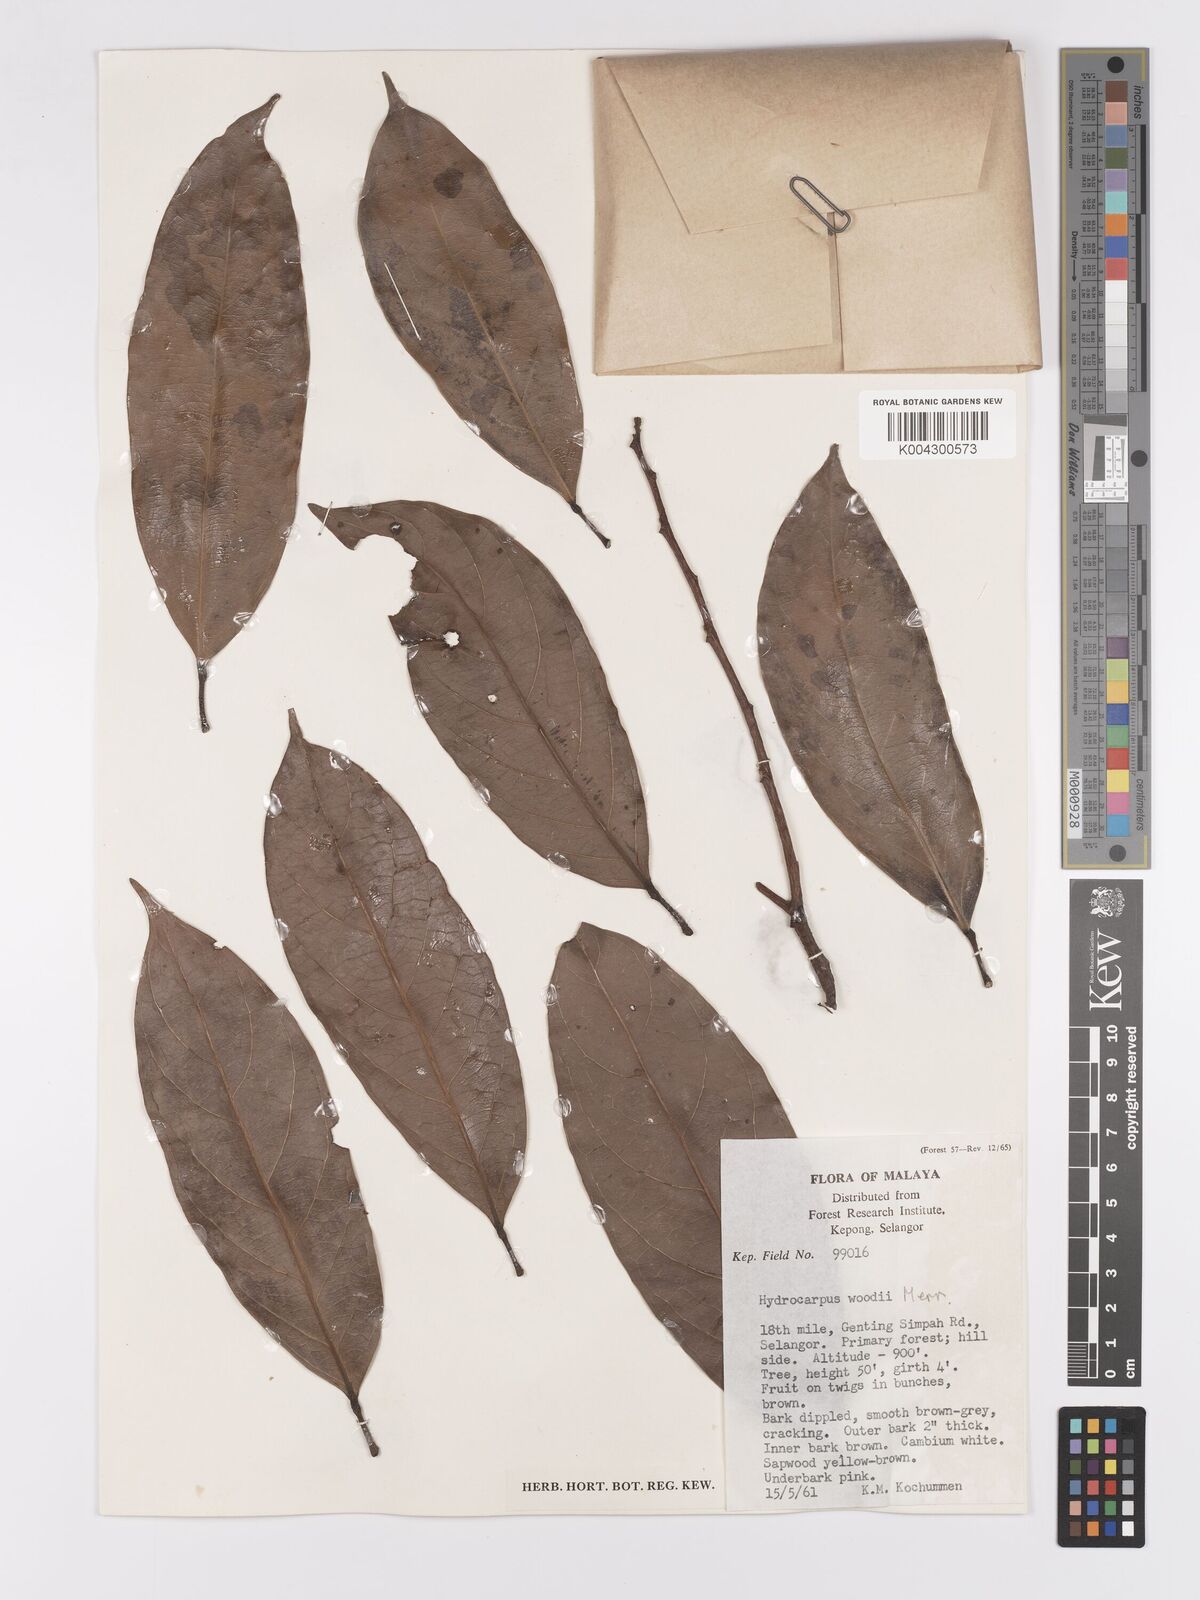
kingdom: Plantae
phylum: Tracheophyta
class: Magnoliopsida
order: Malpighiales
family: Achariaceae
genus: Hydnocarpus
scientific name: Hydnocarpus woodii
